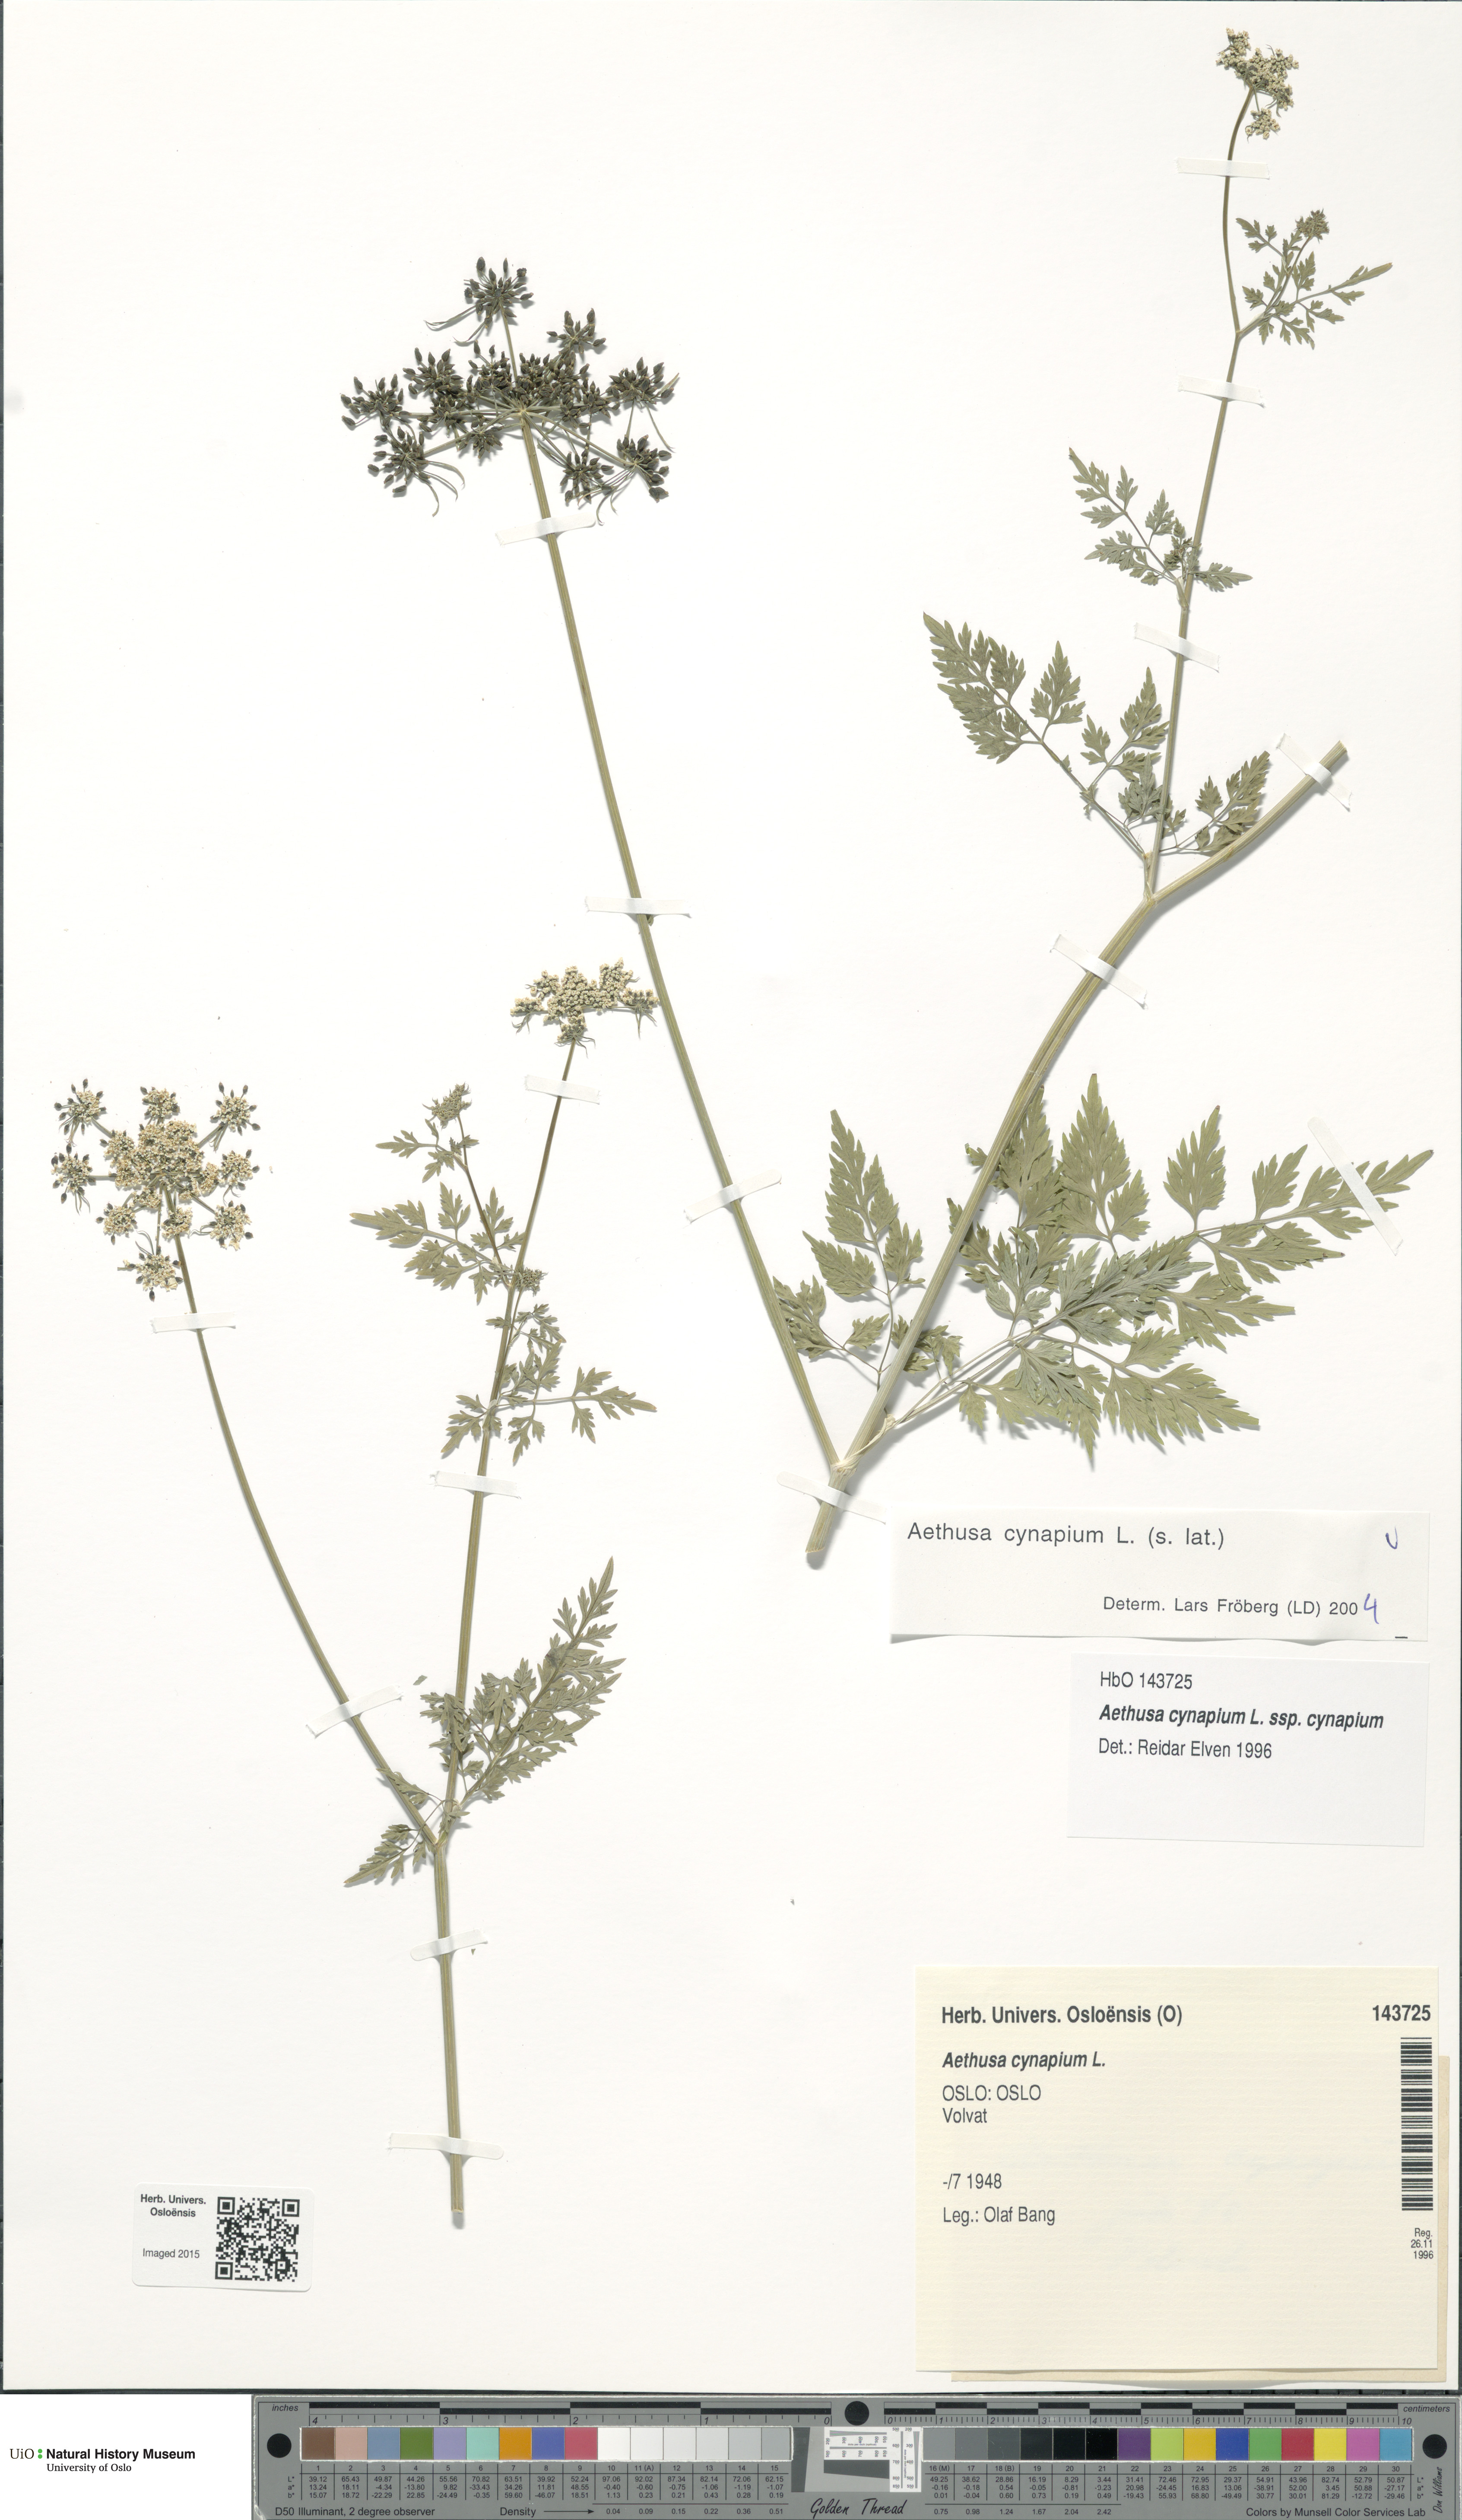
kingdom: Plantae
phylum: Tracheophyta
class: Magnoliopsida
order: Apiales
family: Apiaceae
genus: Aethusa
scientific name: Aethusa cynapium
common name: Fool's parsley
